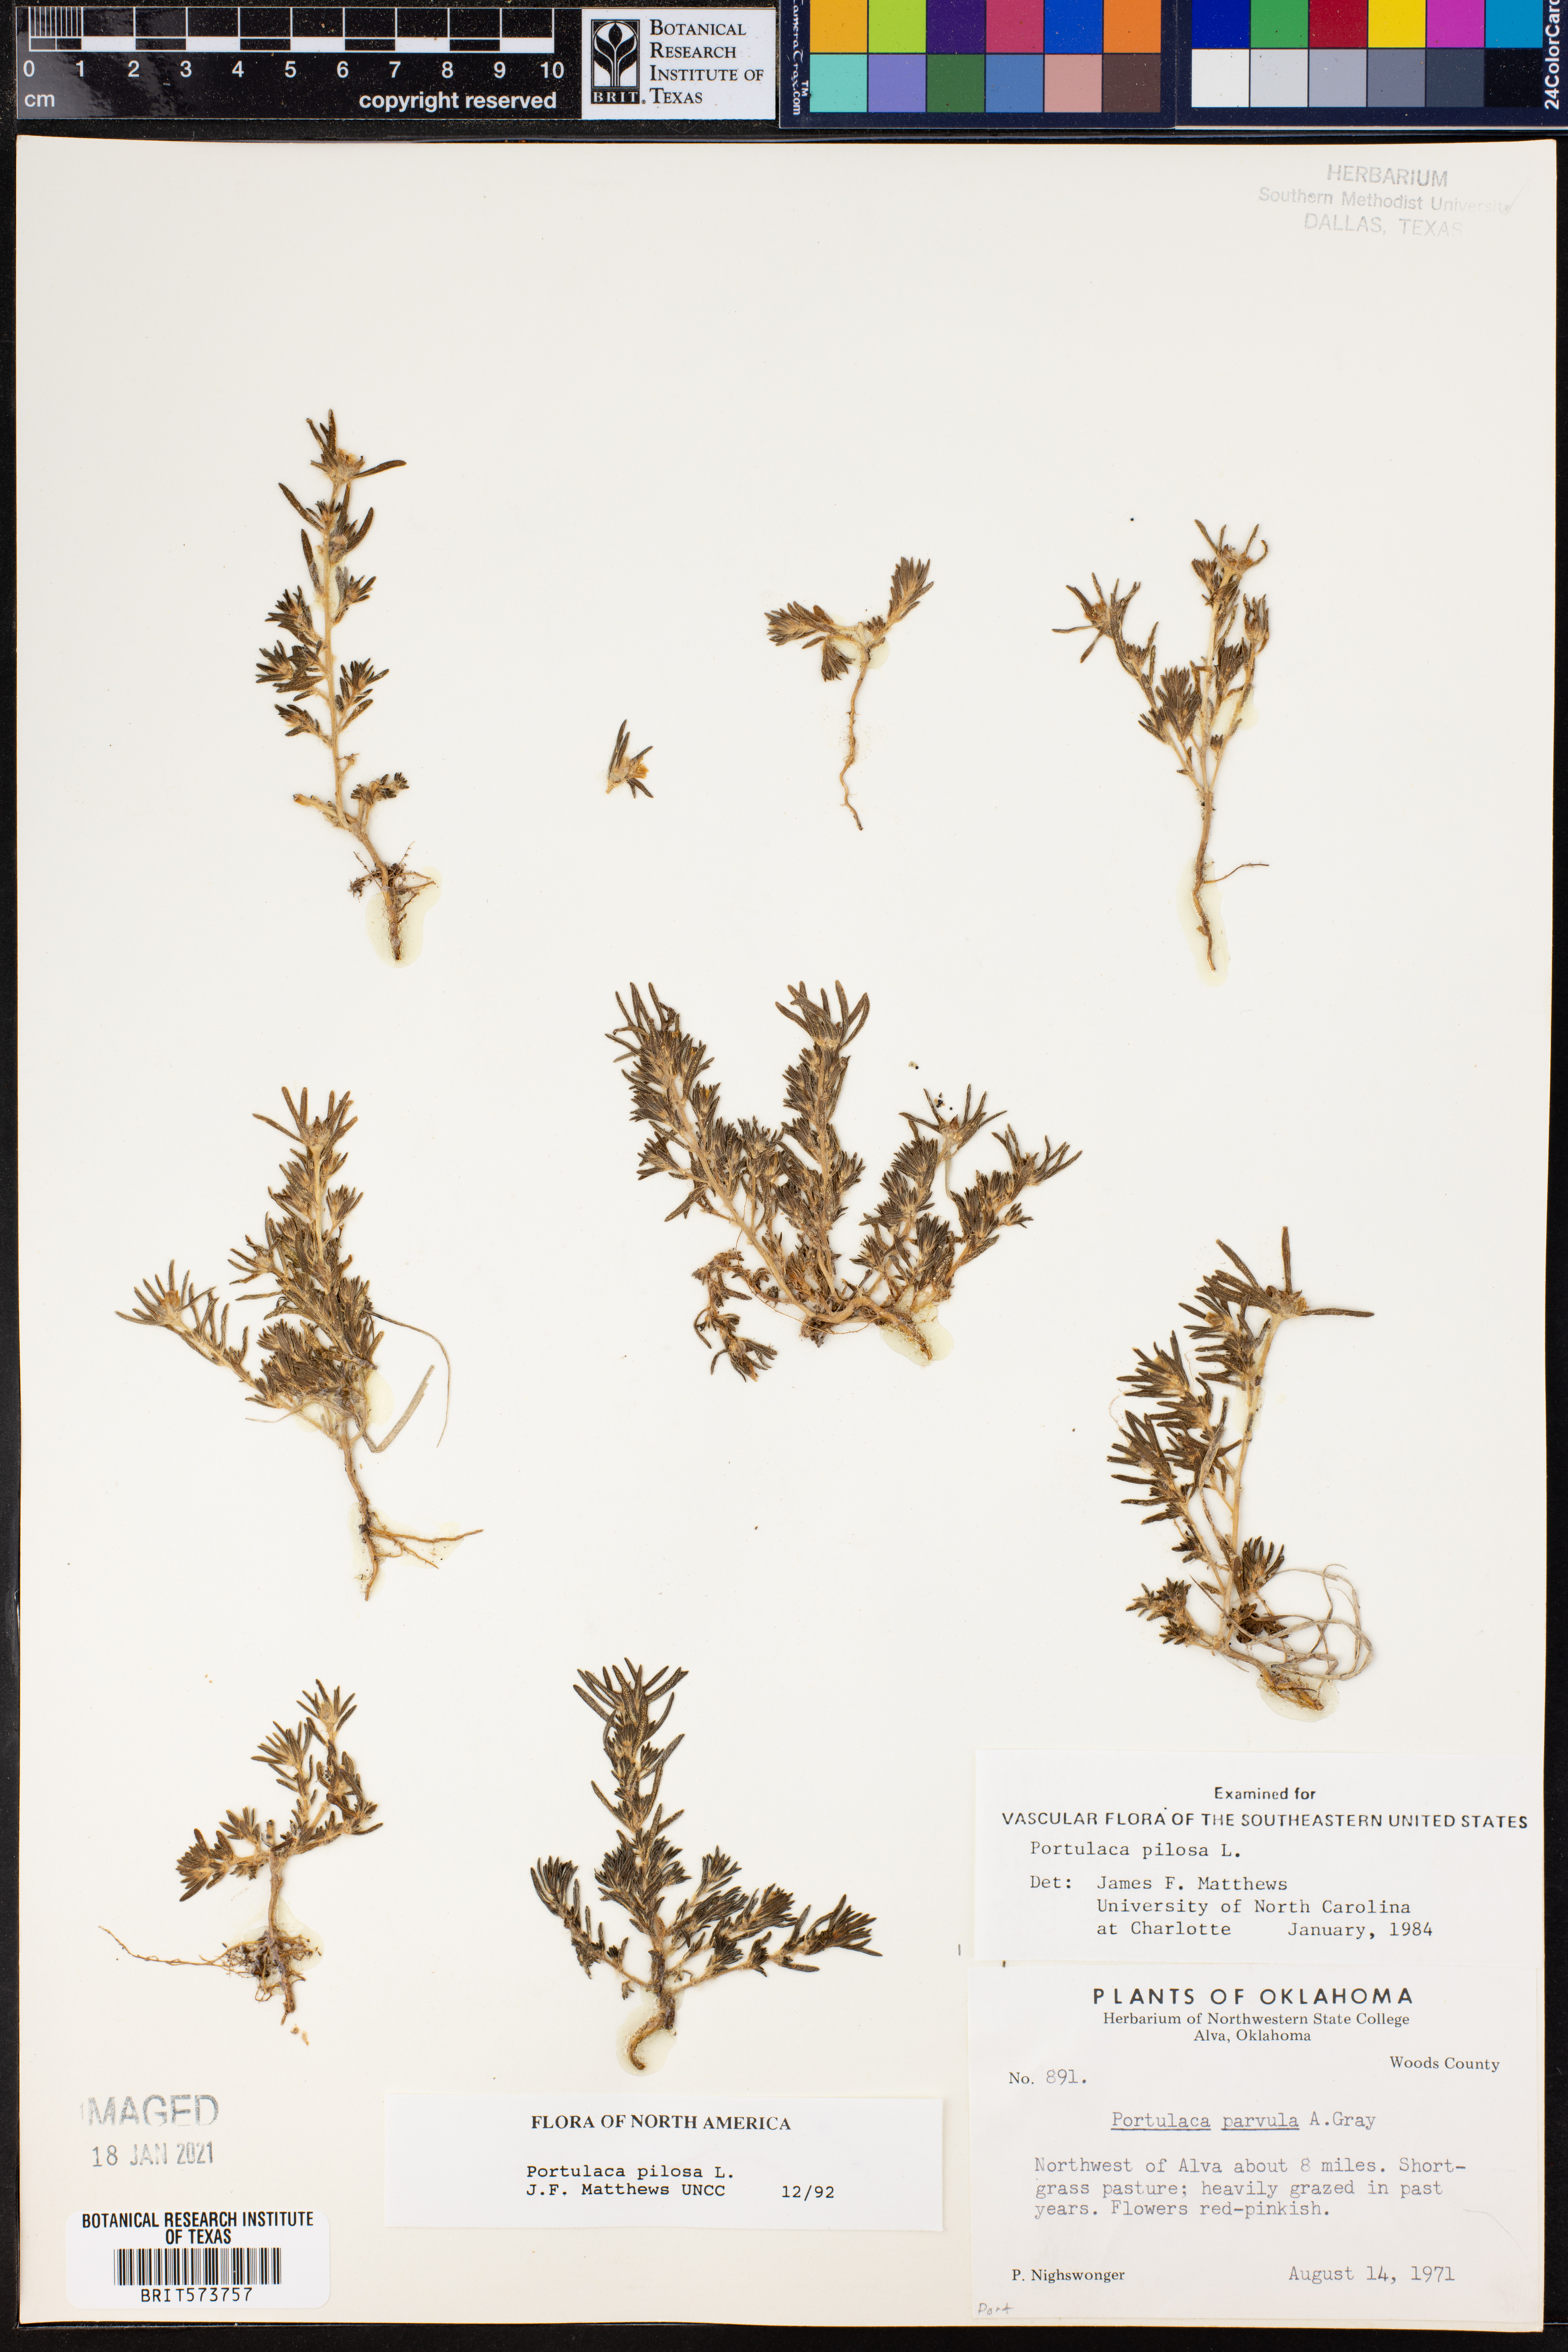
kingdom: Plantae
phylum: Tracheophyta
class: Magnoliopsida
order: Caryophyllales
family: Portulacaceae
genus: Portulaca
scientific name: Portulaca pilosa
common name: Kiss me quick
